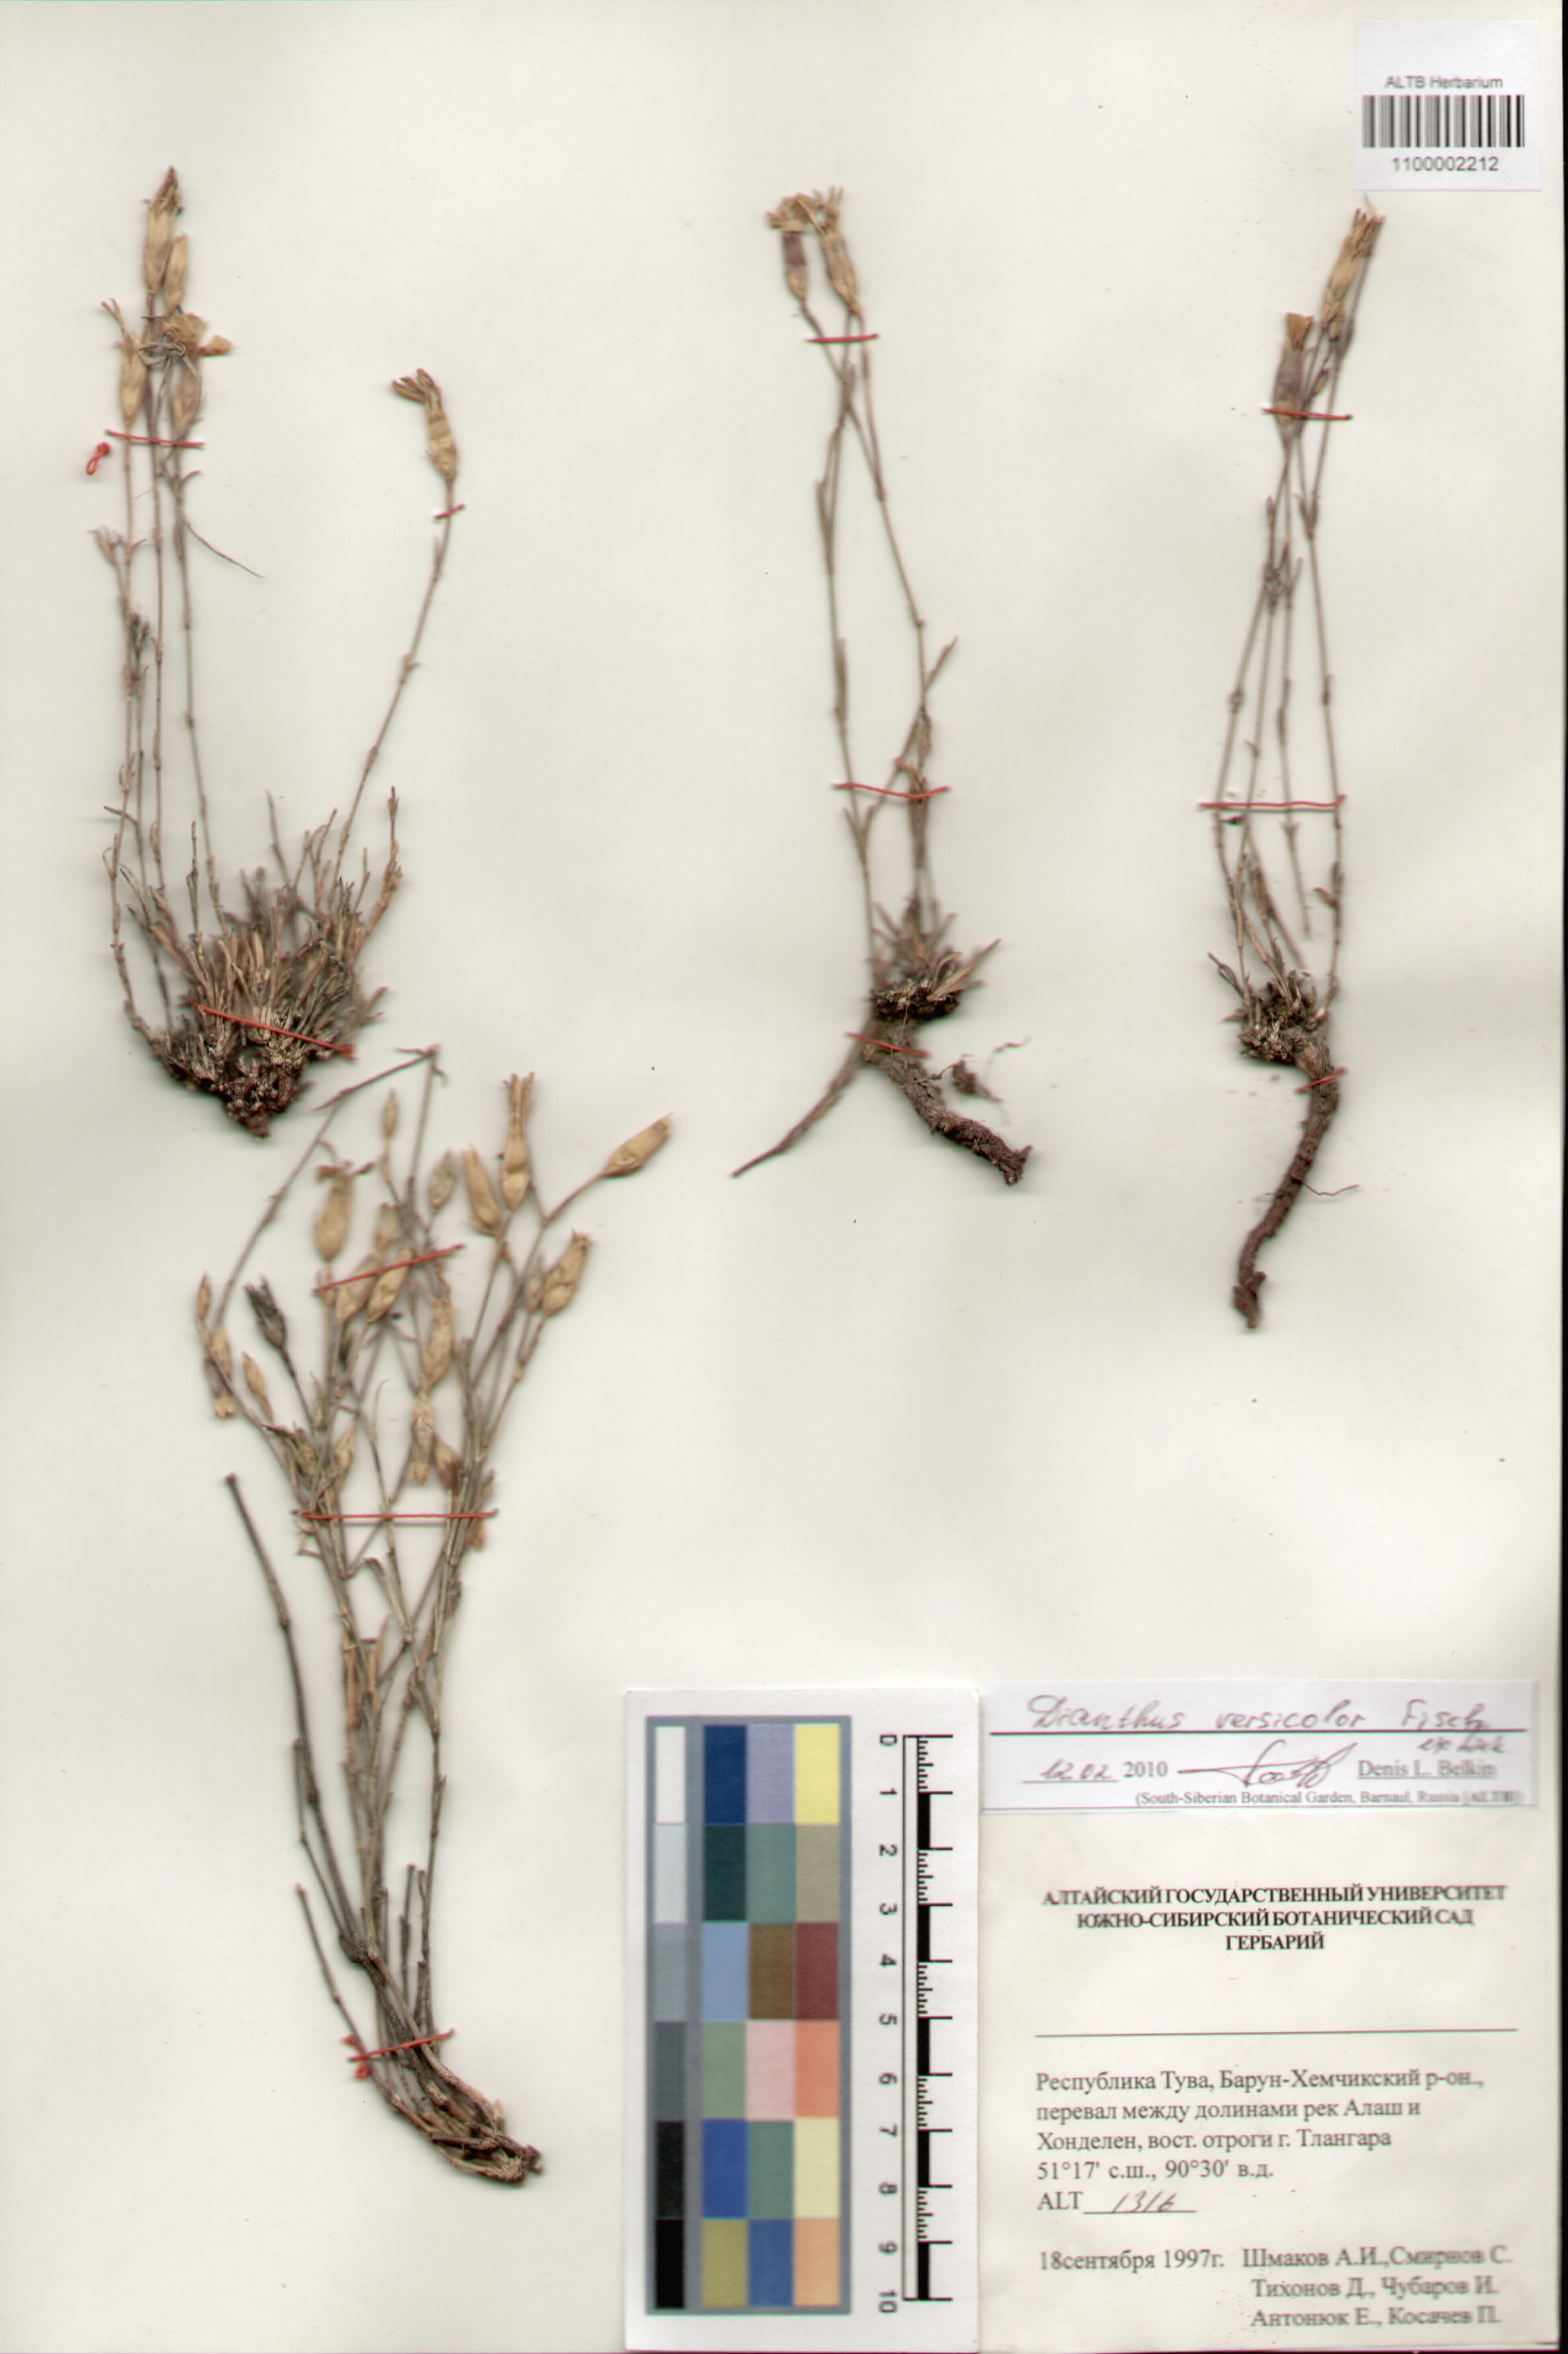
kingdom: Plantae
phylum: Tracheophyta
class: Magnoliopsida
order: Caryophyllales
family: Caryophyllaceae
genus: Dianthus
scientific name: Dianthus chinensis
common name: Rainbow pink
